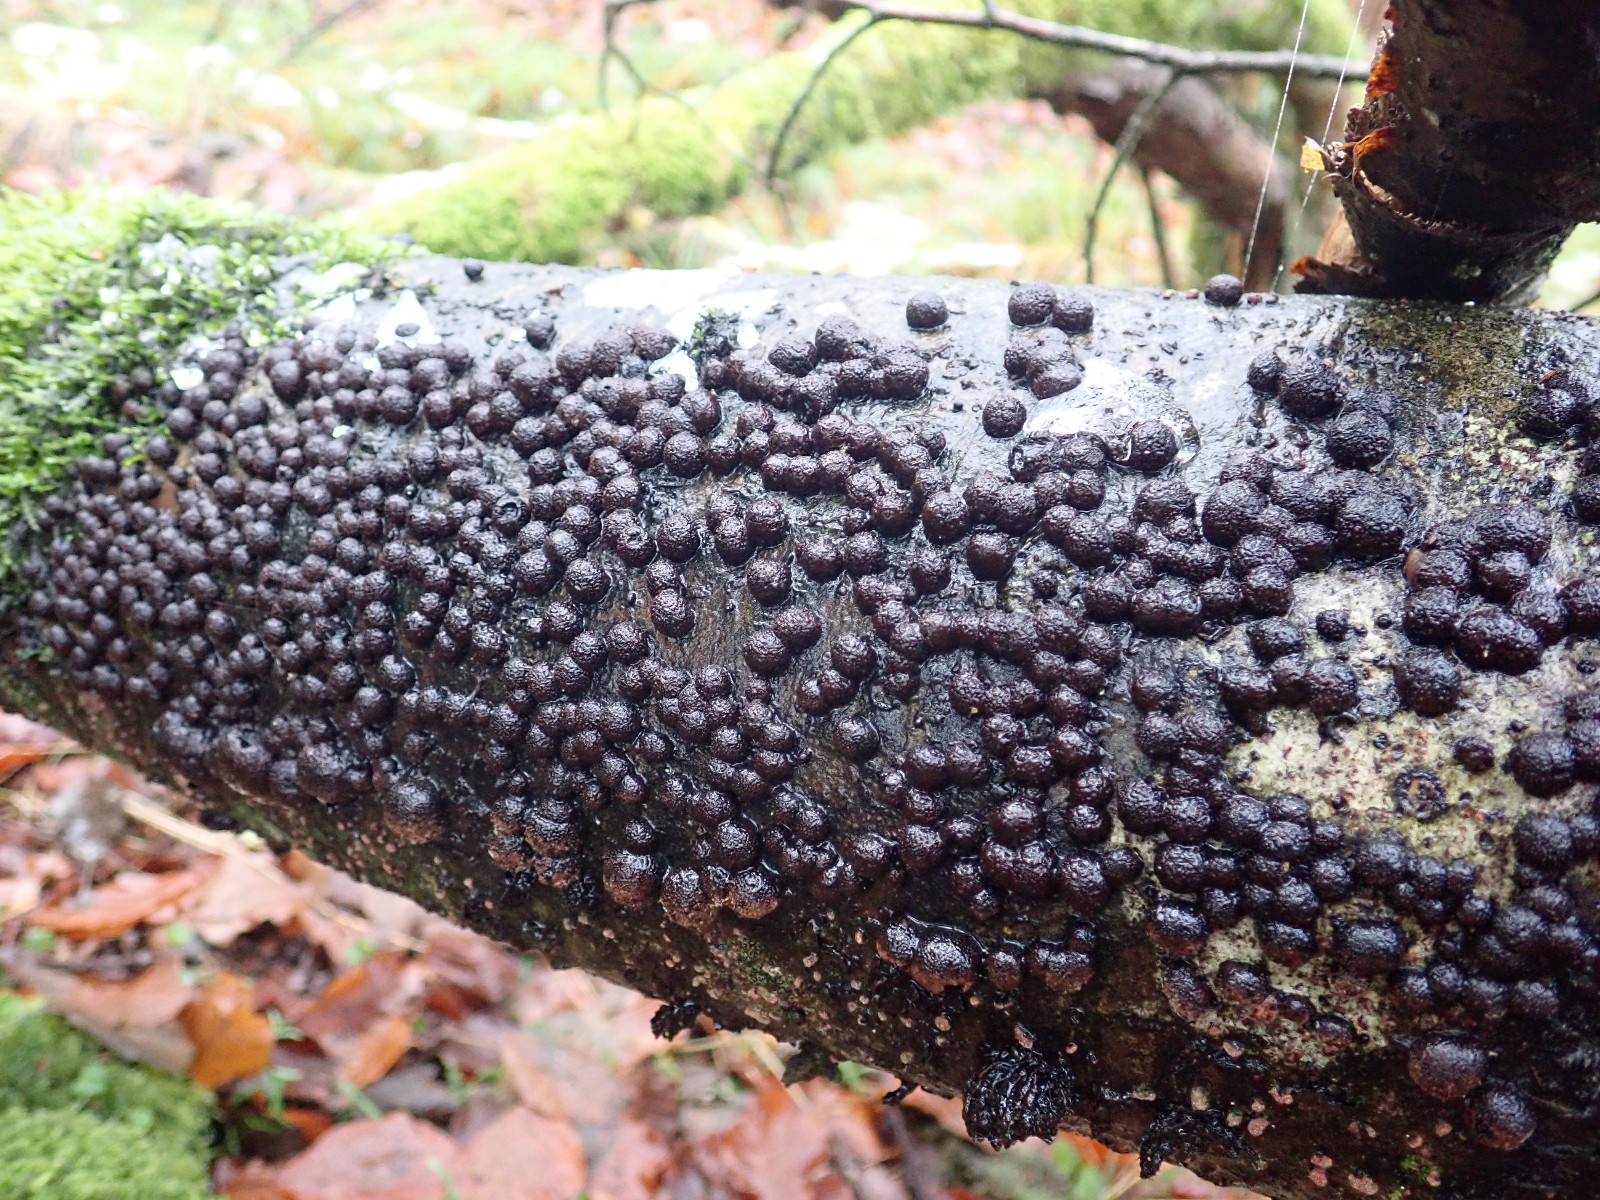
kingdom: Fungi
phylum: Ascomycota
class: Sordariomycetes
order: Xylariales
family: Hypoxylaceae
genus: Hypoxylon
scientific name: Hypoxylon fragiforme
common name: kuljordbær
